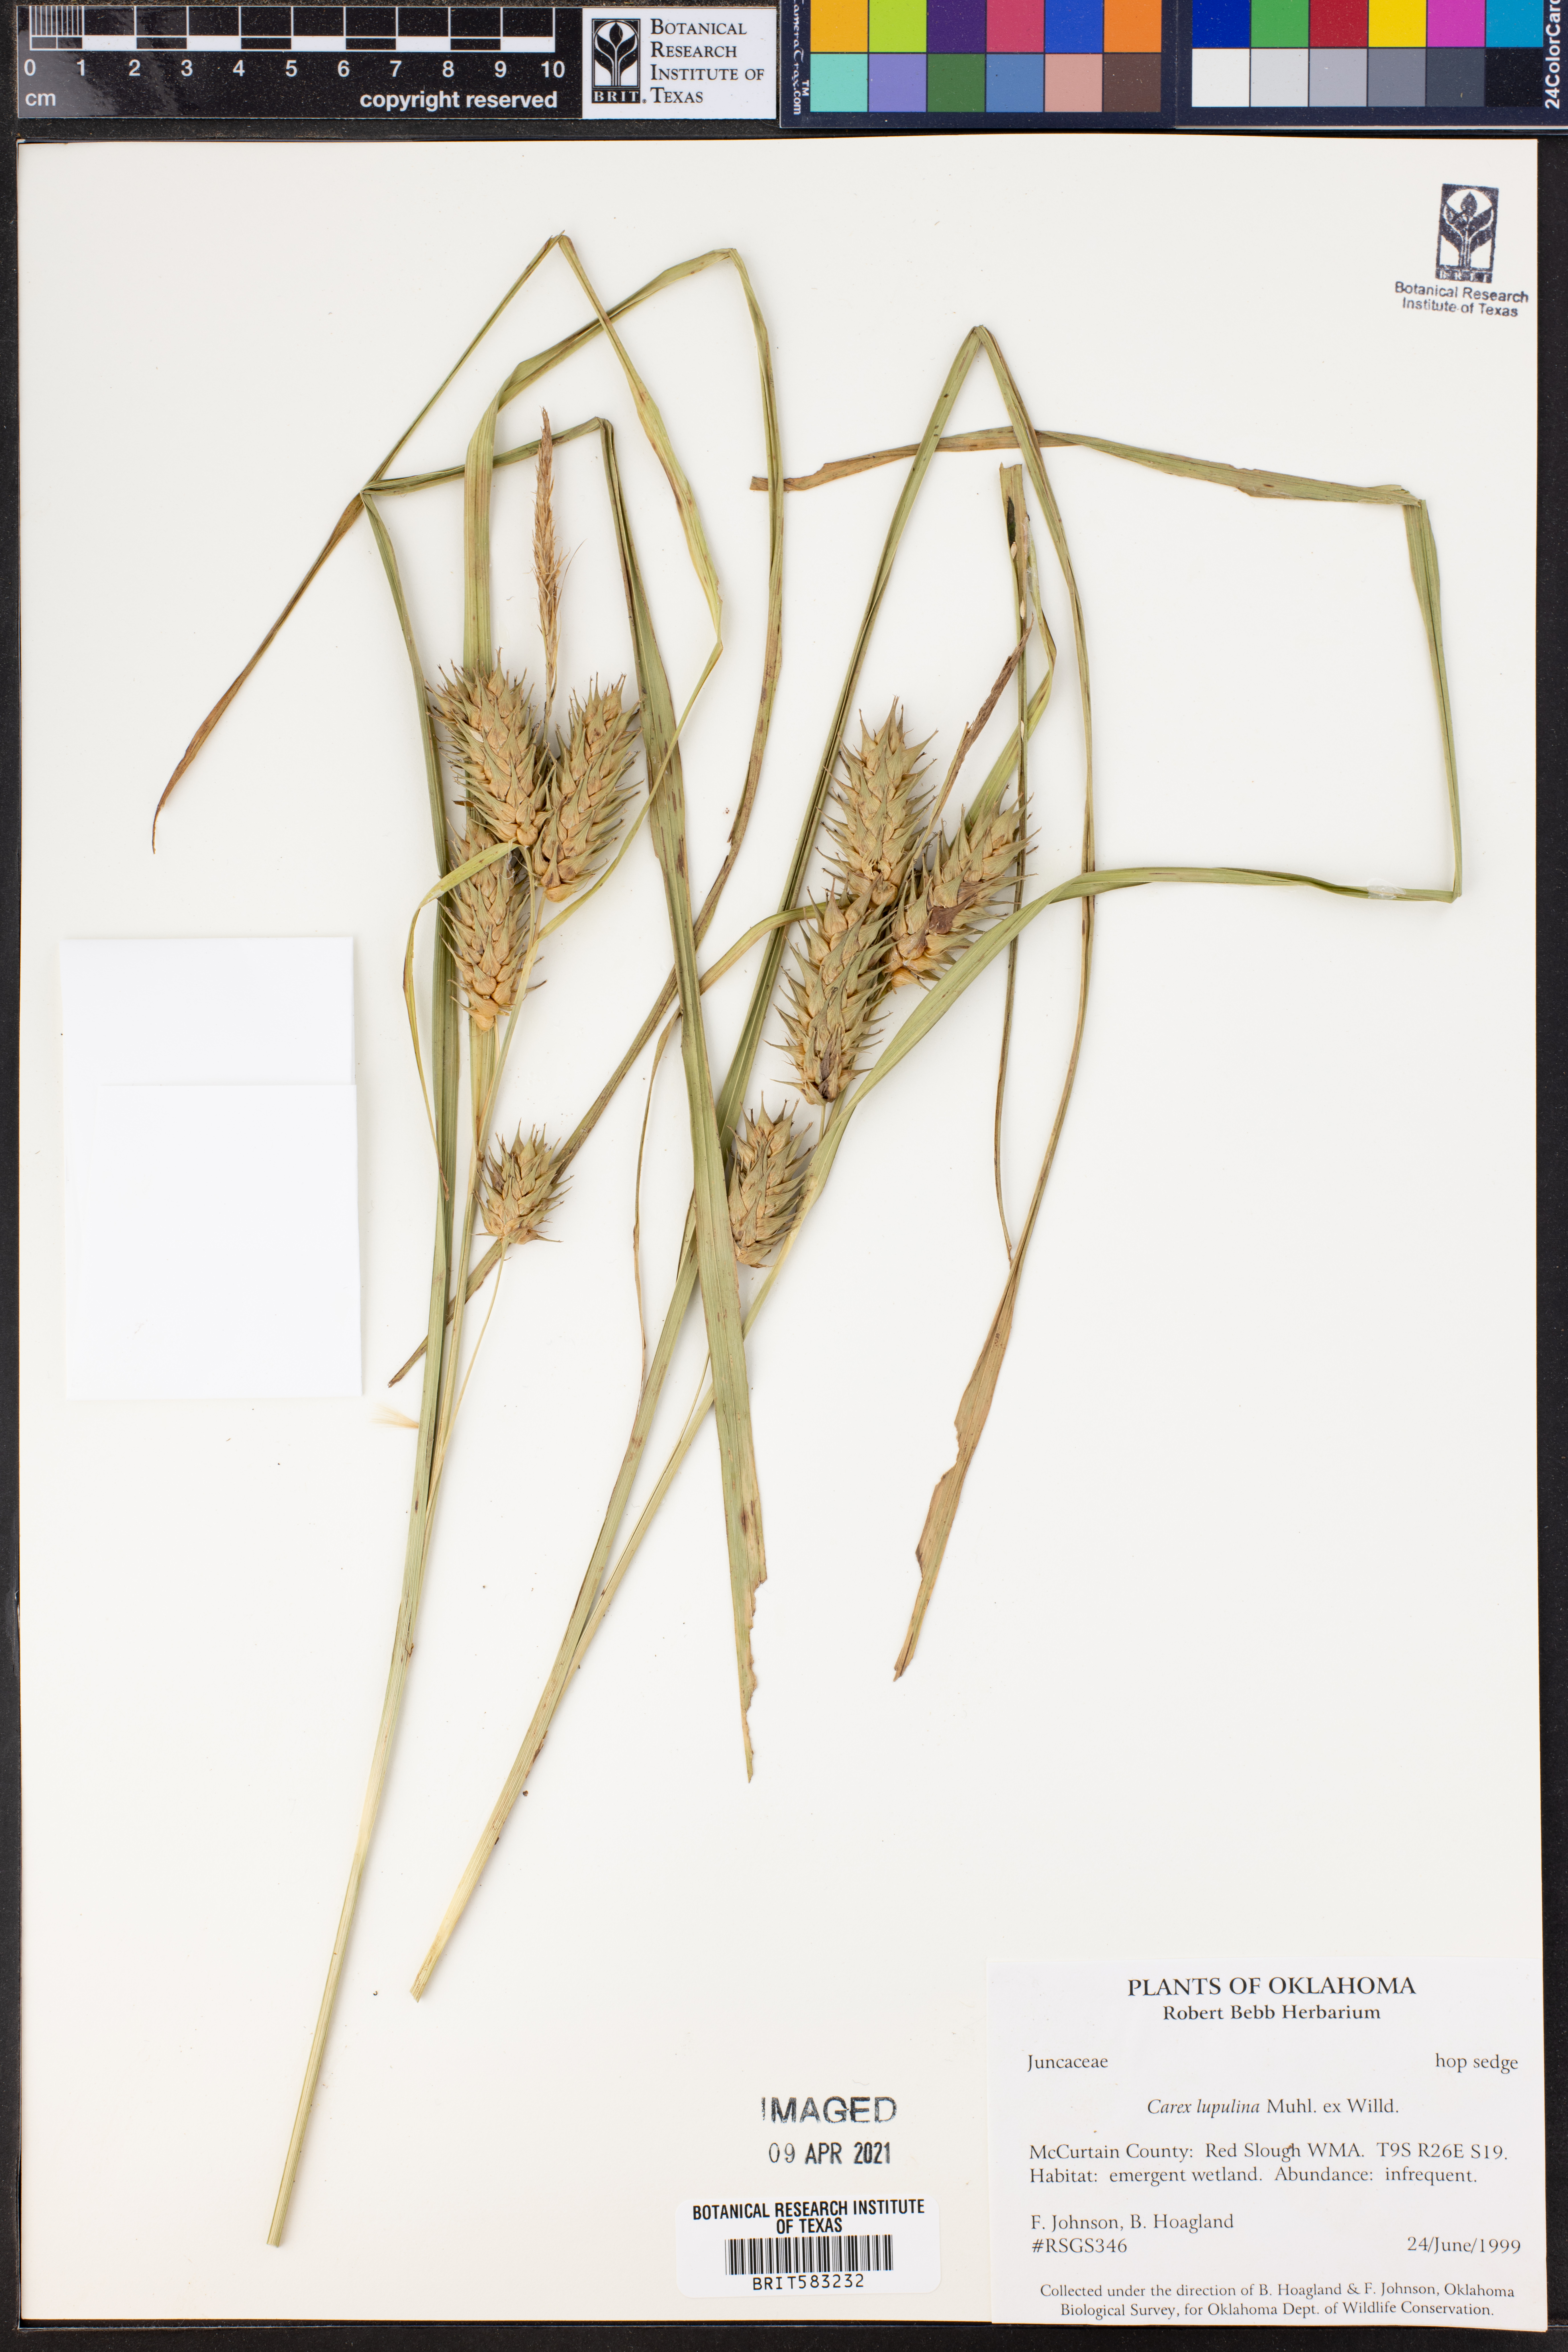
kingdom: Plantae
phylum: Tracheophyta
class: Liliopsida
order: Poales
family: Cyperaceae
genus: Carex
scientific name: Carex lupulina
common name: Hop sedge
